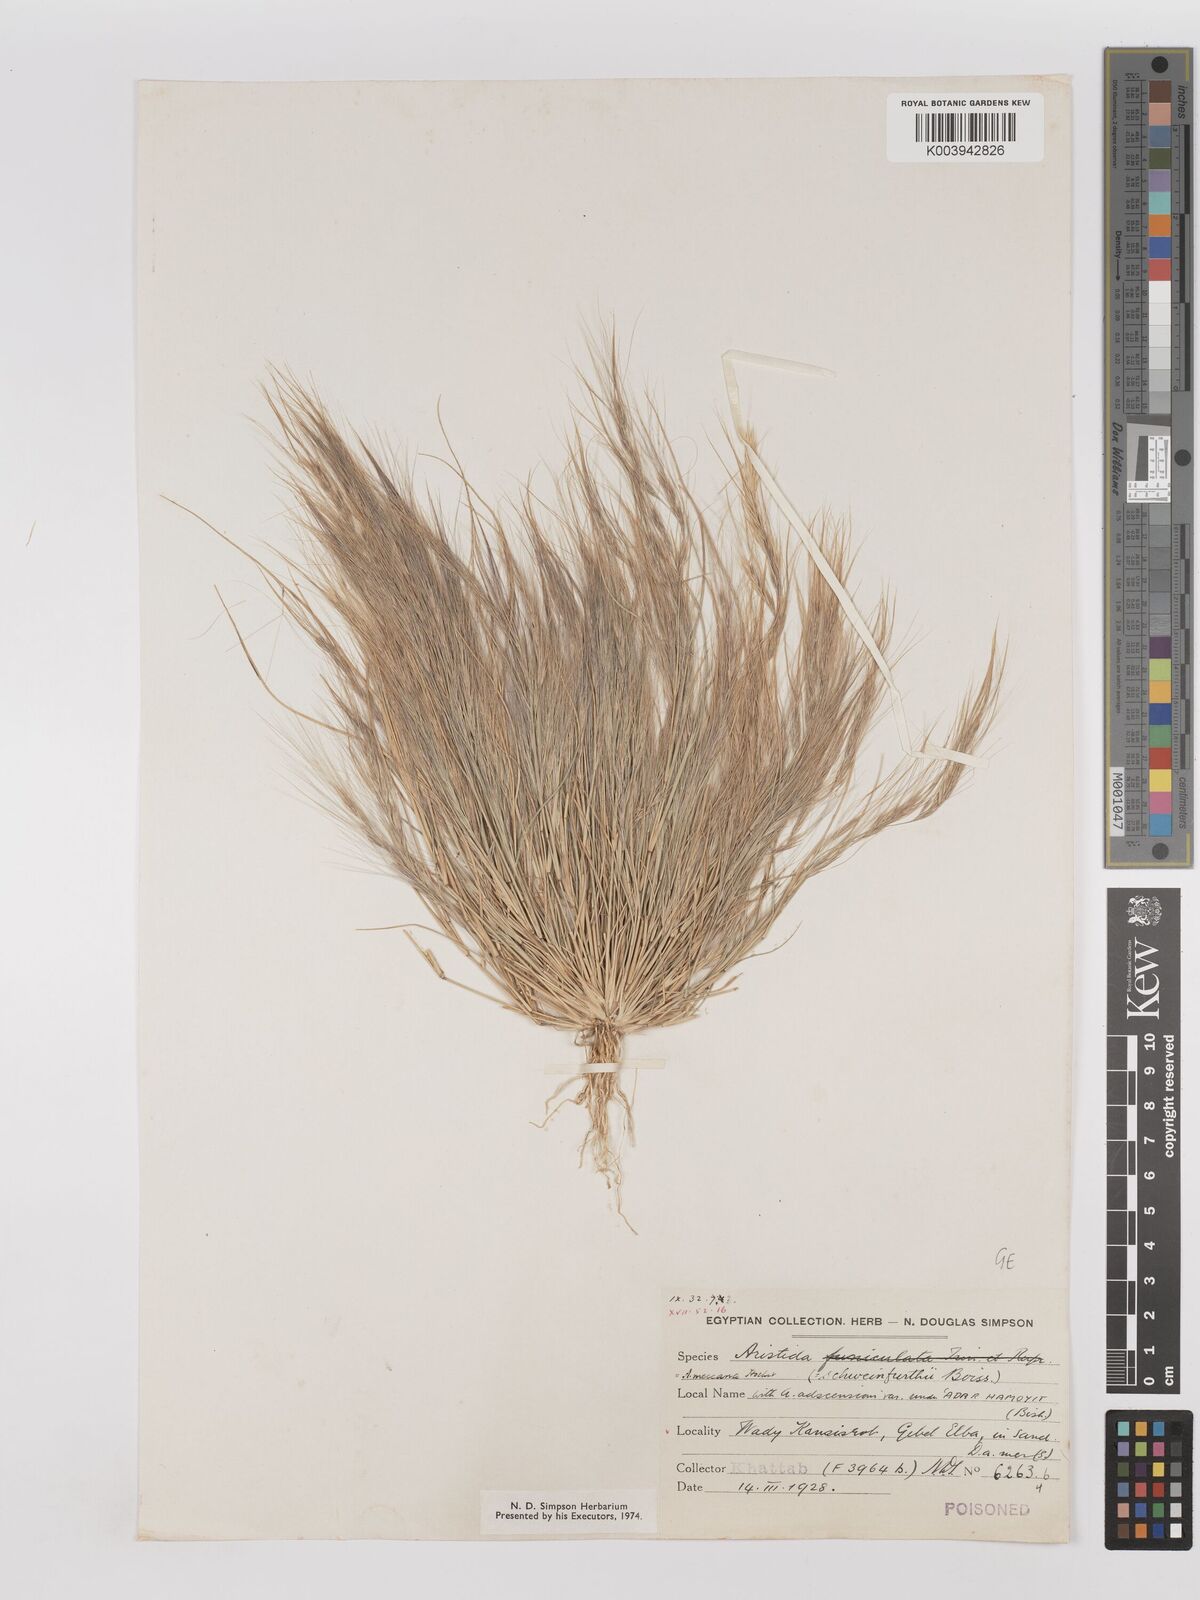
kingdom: Plantae
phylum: Tracheophyta
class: Liliopsida
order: Poales
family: Poaceae
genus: Aristida
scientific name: Aristida mutabilis
